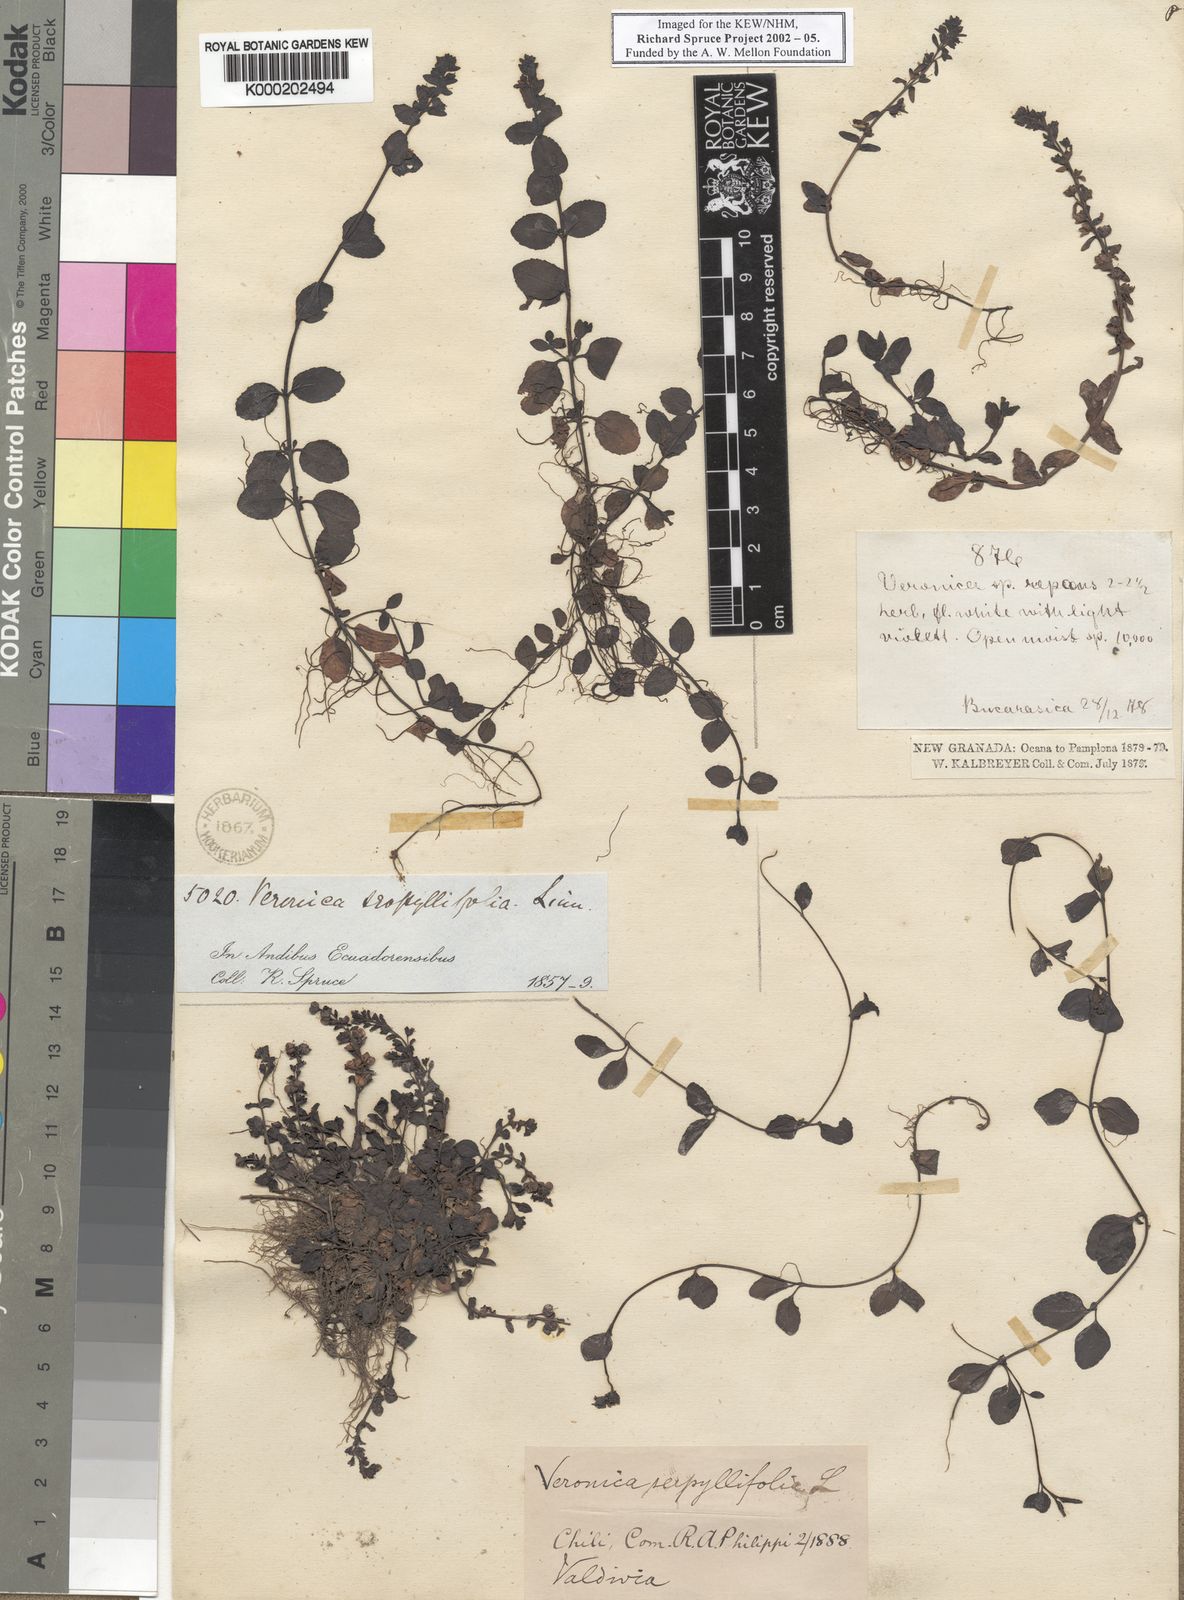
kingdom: Plantae
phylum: Tracheophyta
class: Magnoliopsida
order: Lamiales
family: Plantaginaceae
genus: Veronica
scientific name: Veronica serpyllifolia
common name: Thyme-leaved speedwell
